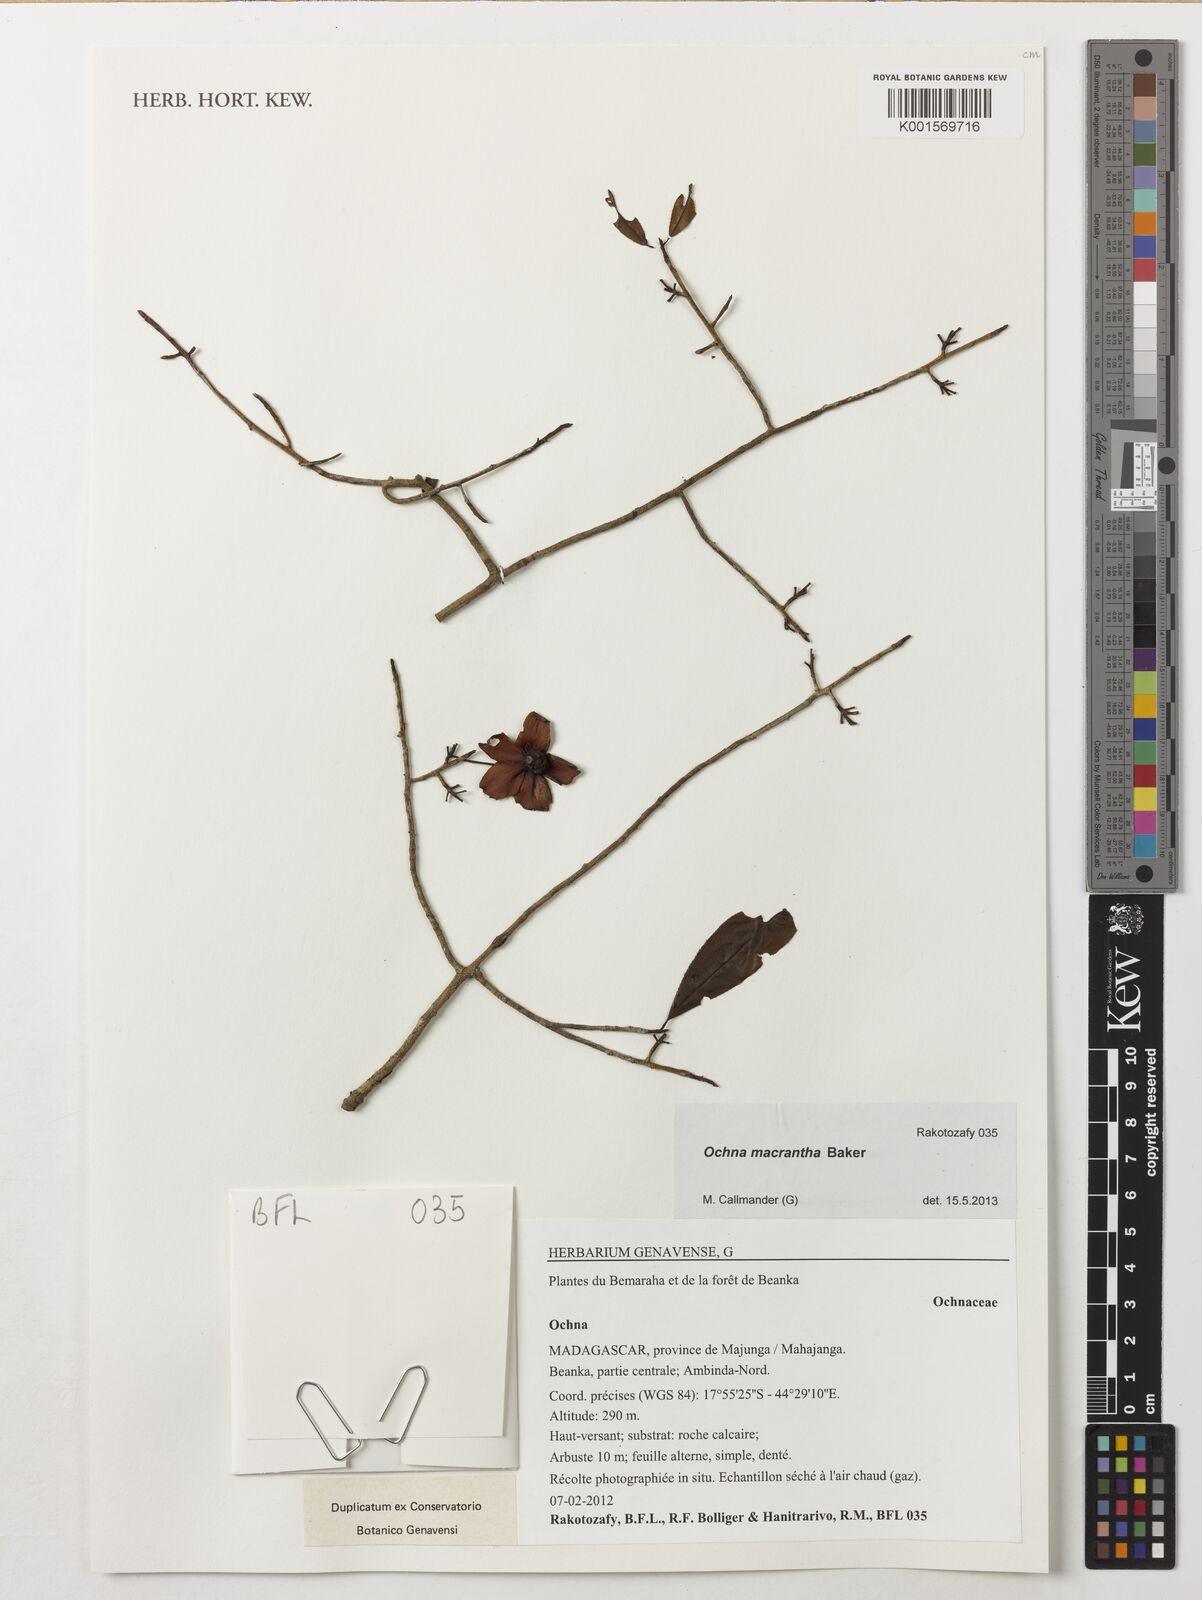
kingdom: Plantae
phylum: Tracheophyta
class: Magnoliopsida
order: Malpighiales
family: Ochnaceae
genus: Ochna
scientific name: Ochna macrantha
